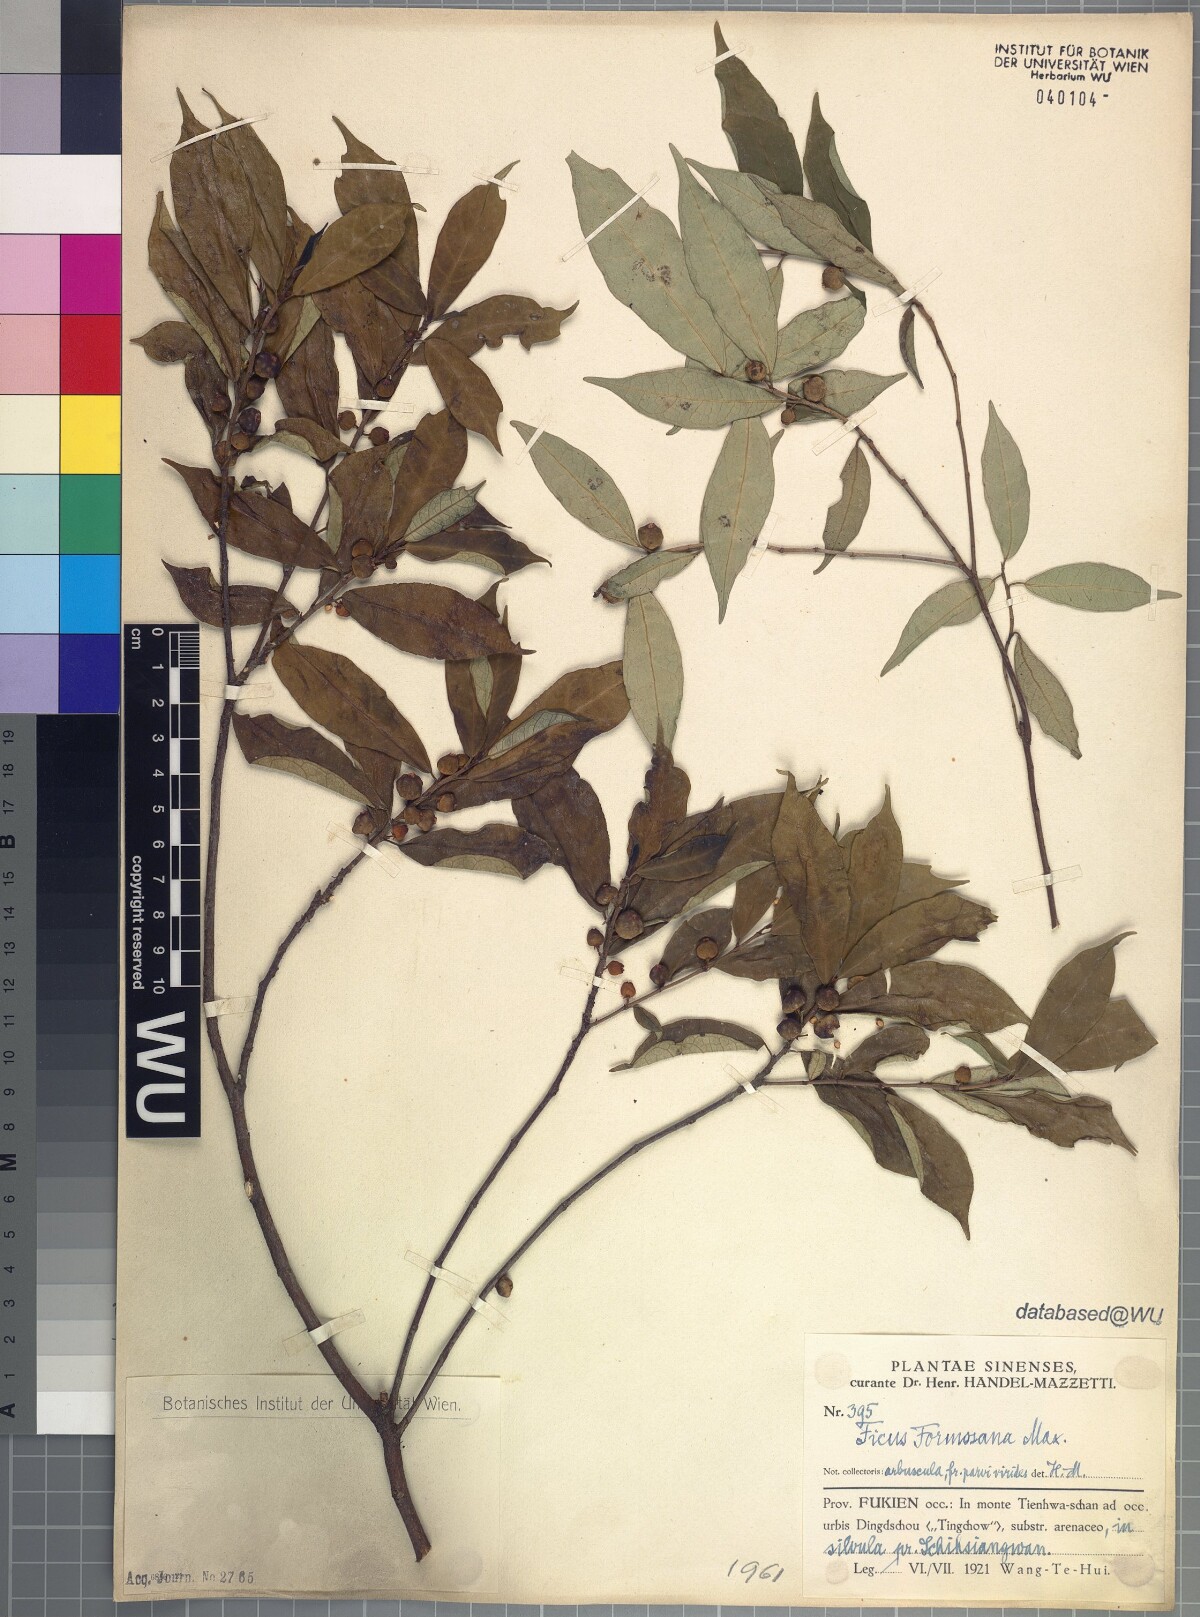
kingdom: Plantae
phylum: Tracheophyta
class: Magnoliopsida
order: Rosales
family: Moraceae
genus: Ficus
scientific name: Ficus formosana
